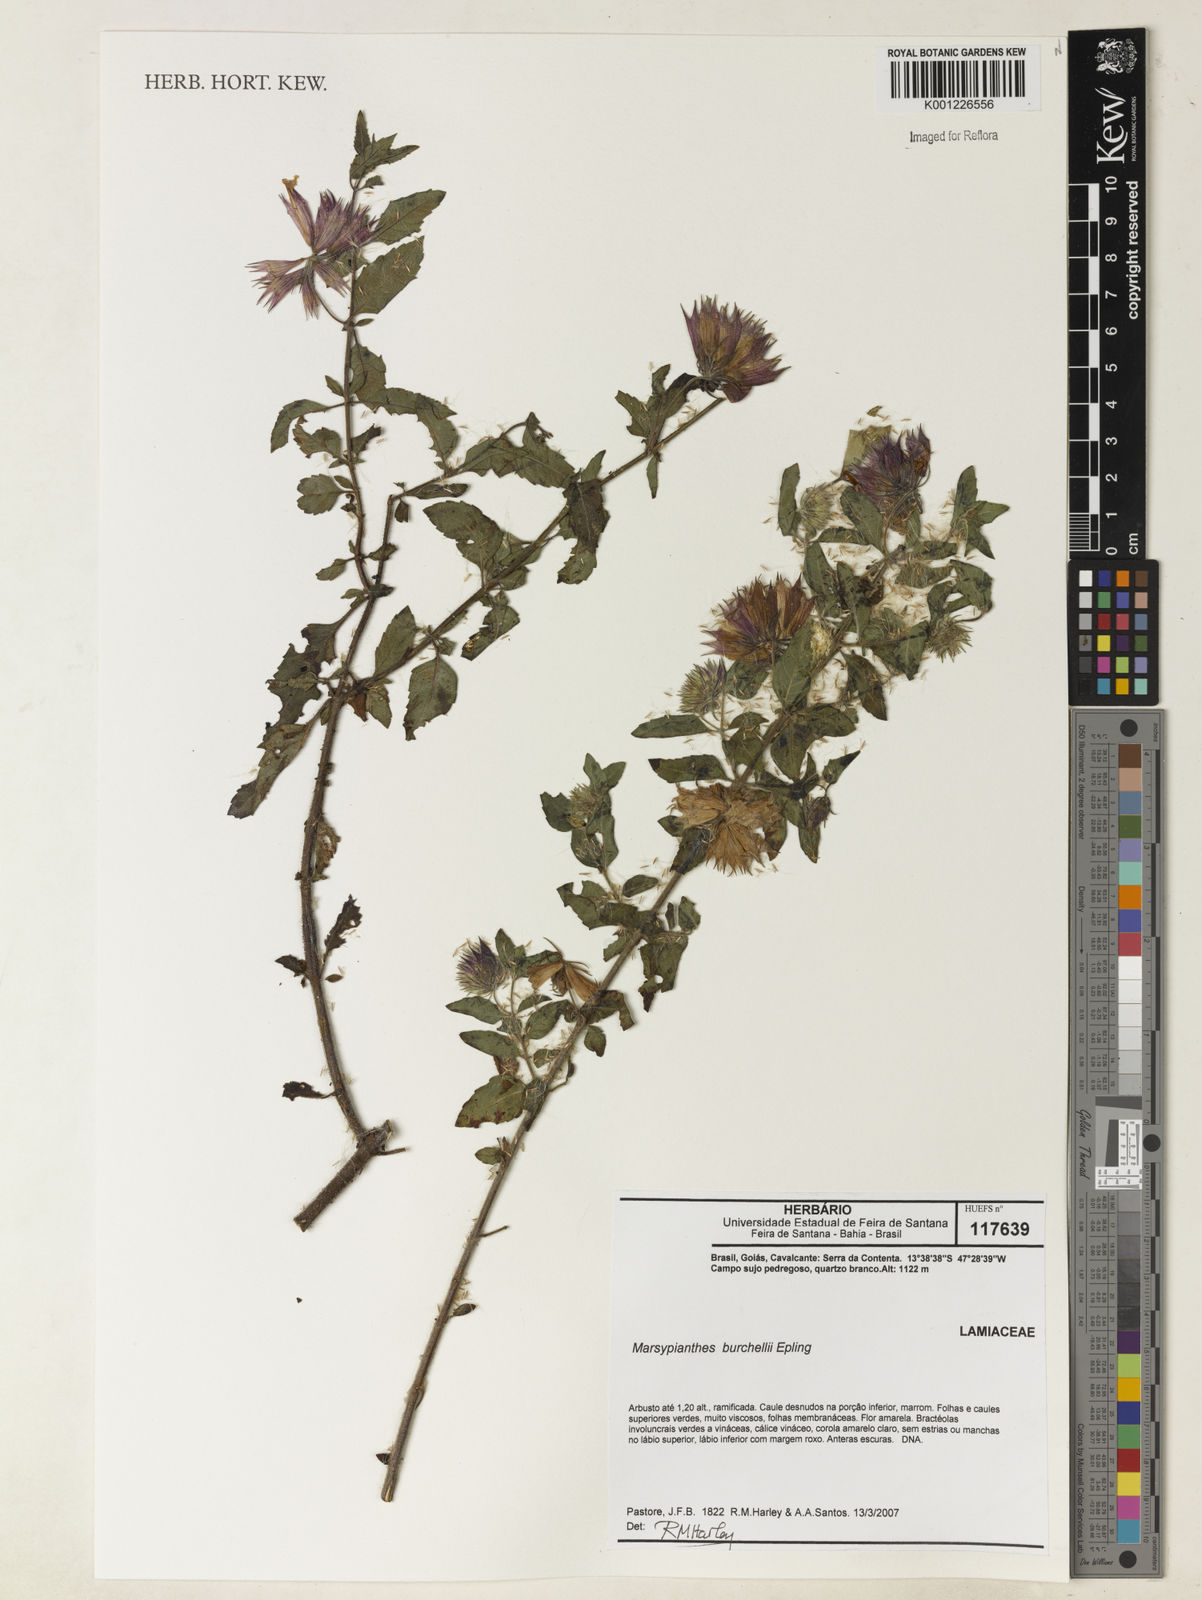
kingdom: Plantae
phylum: Tracheophyta
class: Magnoliopsida
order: Lamiales
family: Lamiaceae
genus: Marsypianthes
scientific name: Marsypianthes burchellii
